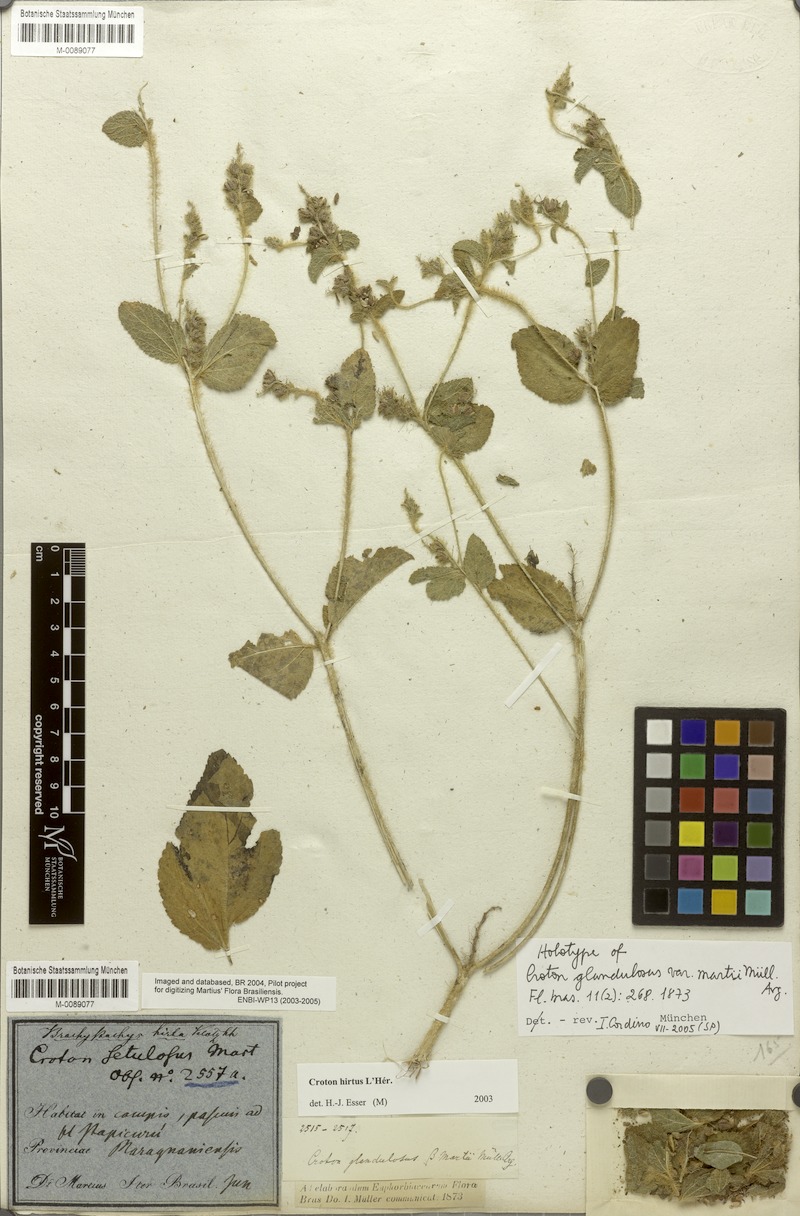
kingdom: Plantae
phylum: Tracheophyta
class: Magnoliopsida
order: Malpighiales
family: Euphorbiaceae
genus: Croton
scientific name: Croton hirtus
